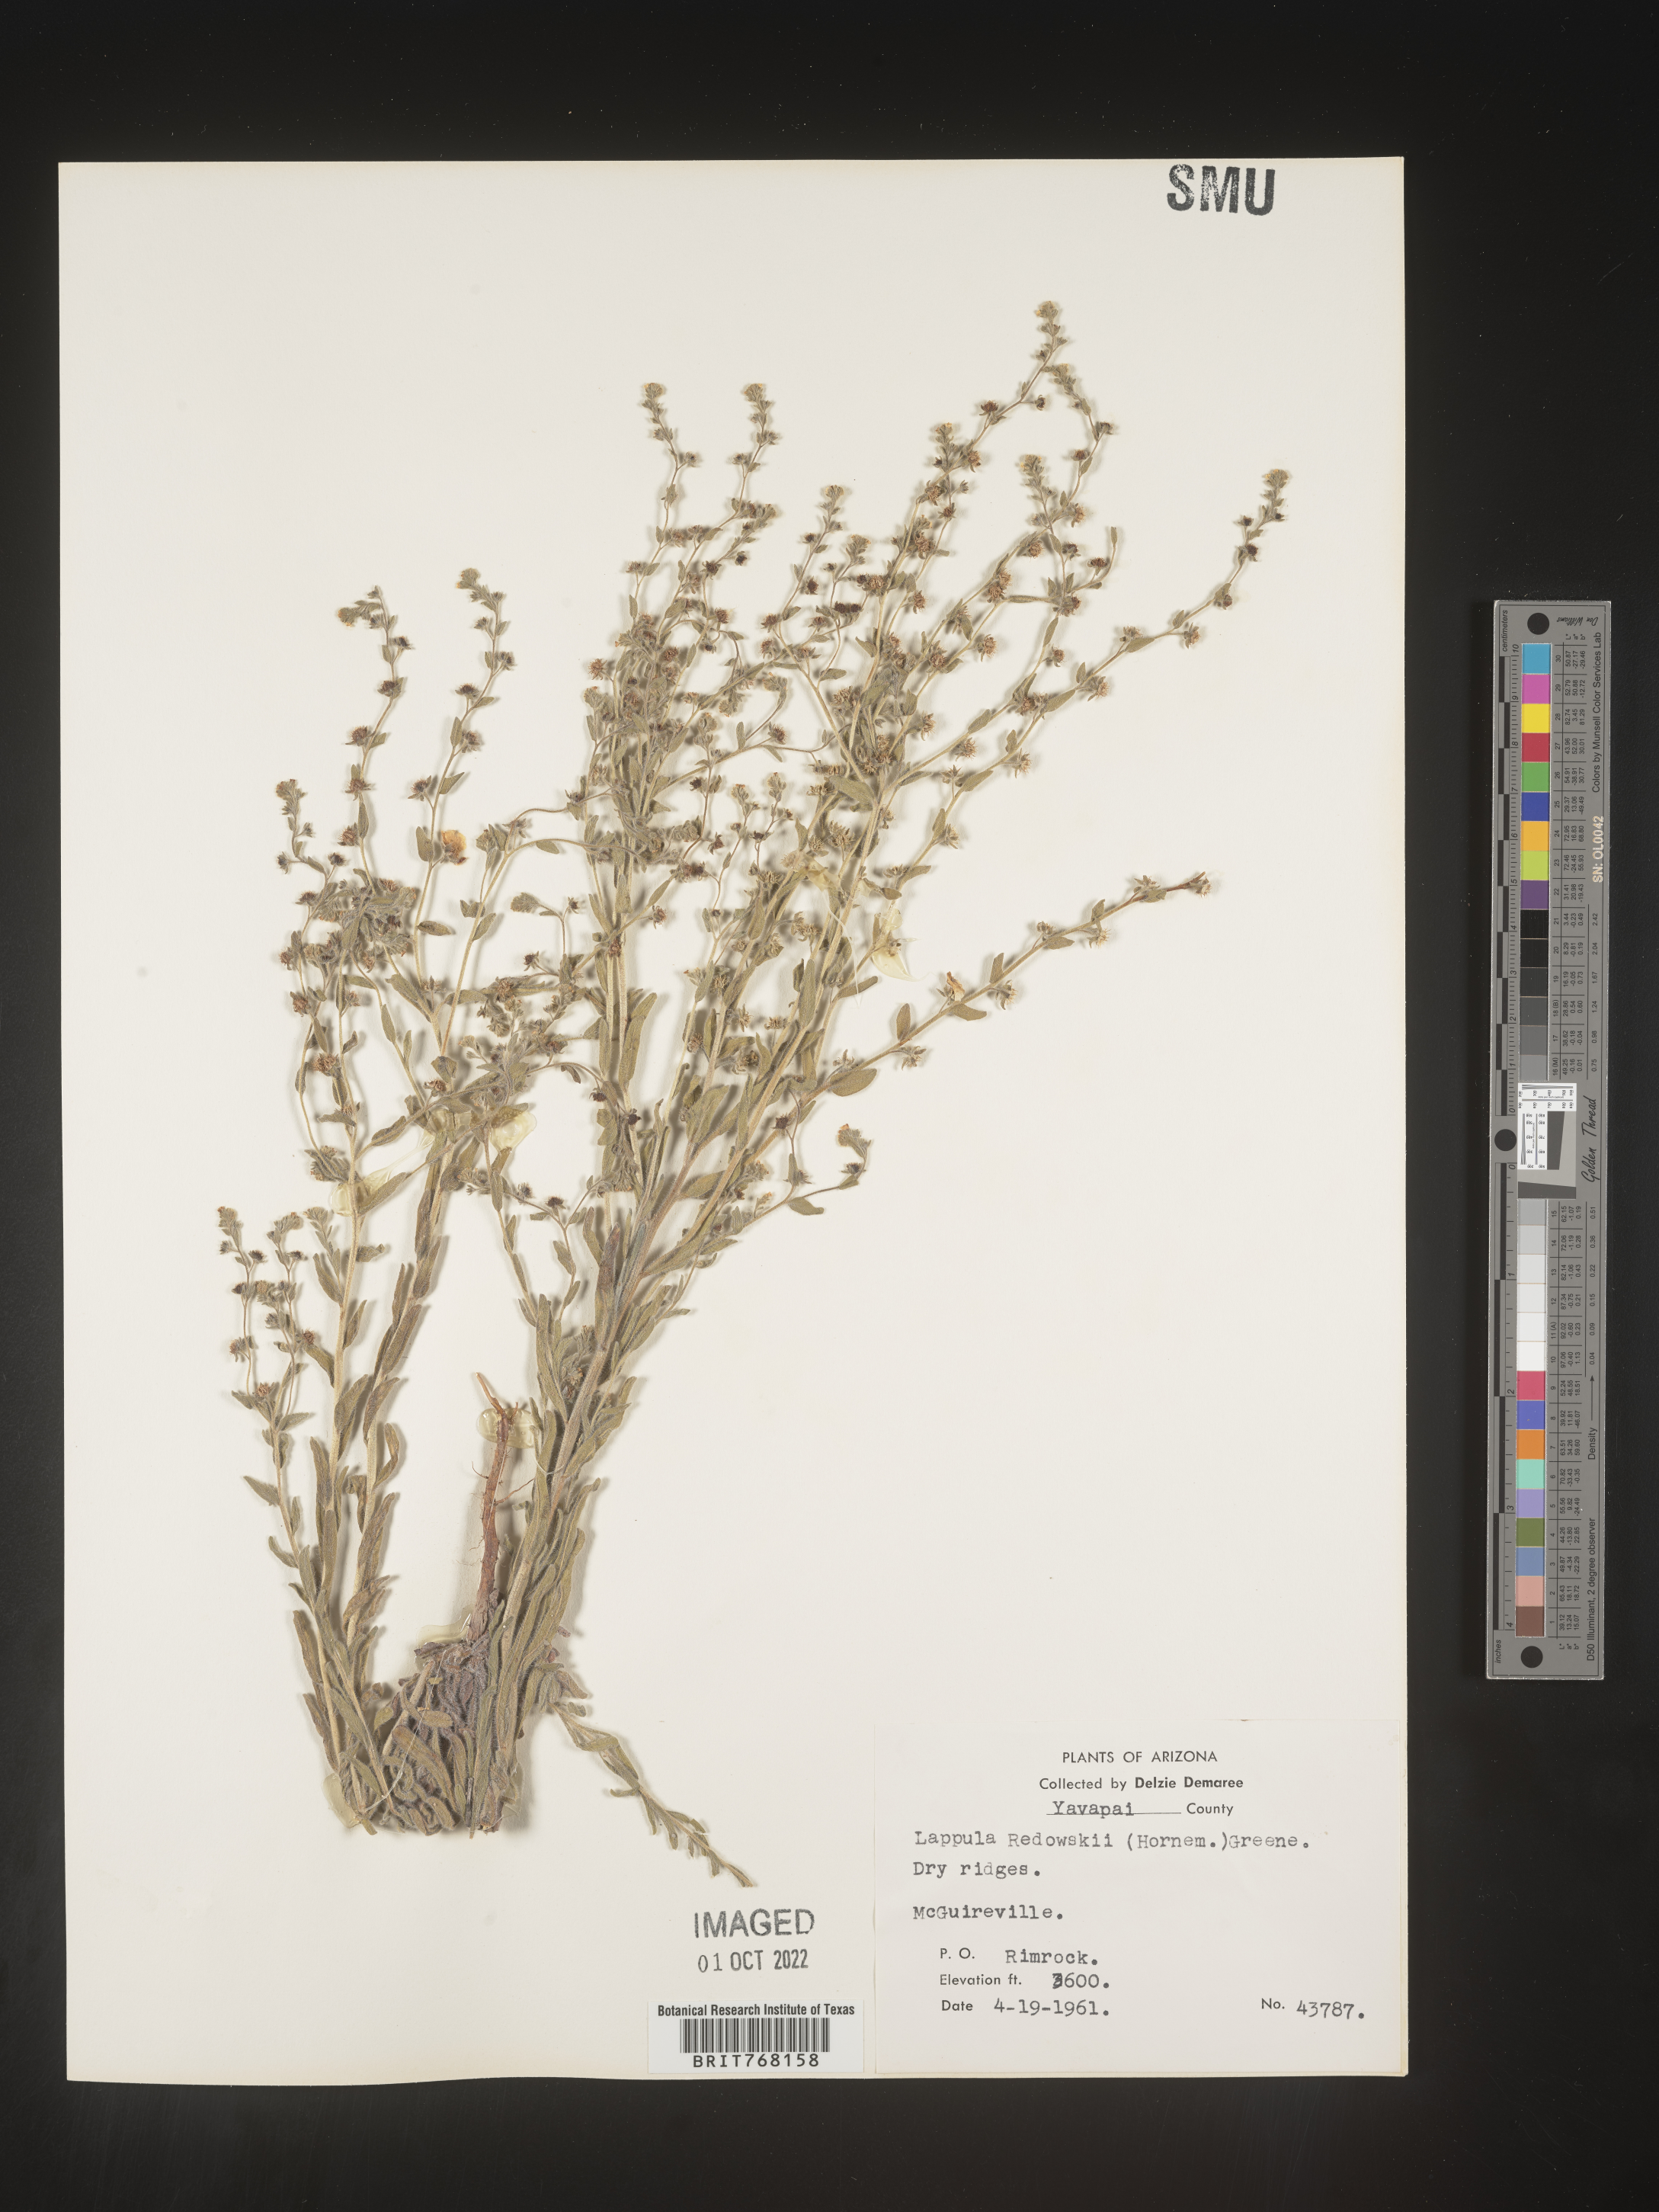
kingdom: Plantae
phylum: Tracheophyta
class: Magnoliopsida
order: Boraginales
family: Boraginaceae
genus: Lappula
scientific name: Lappula redowskii
